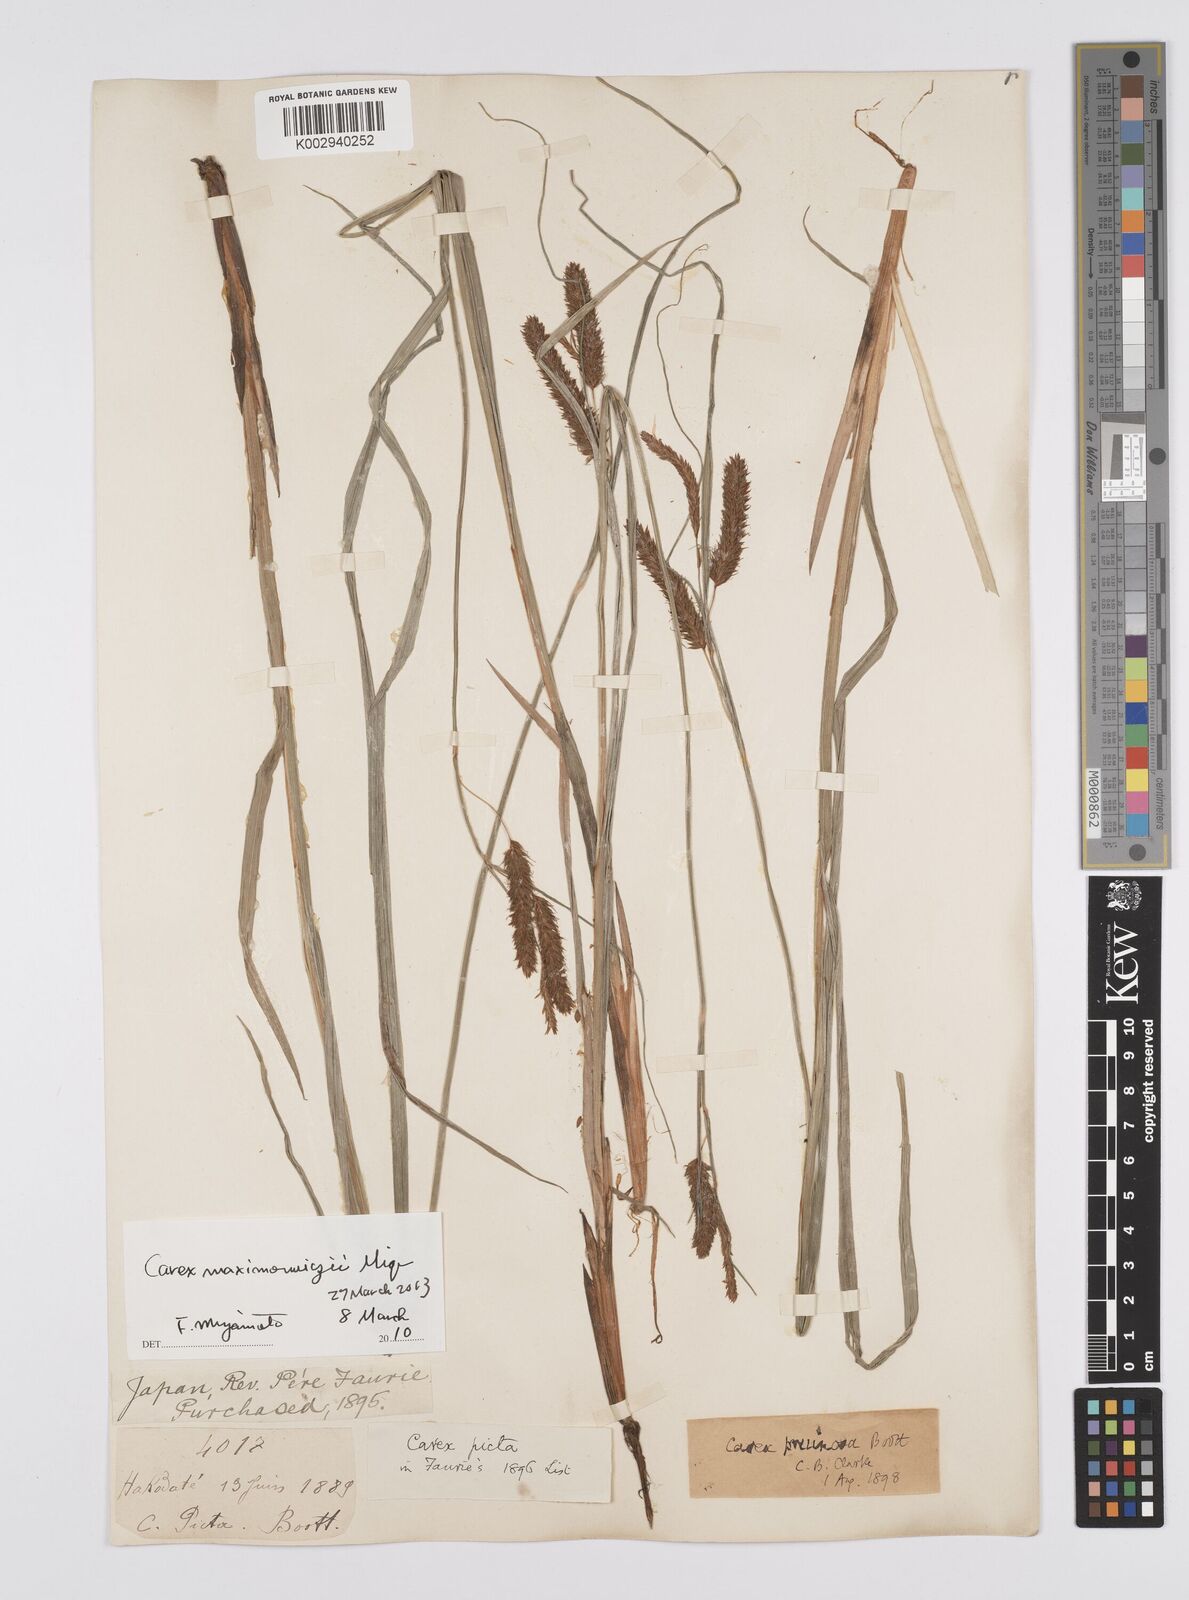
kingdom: Plantae
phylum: Tracheophyta
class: Liliopsida
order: Poales
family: Cyperaceae
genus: Carex
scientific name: Carex pruinosa
